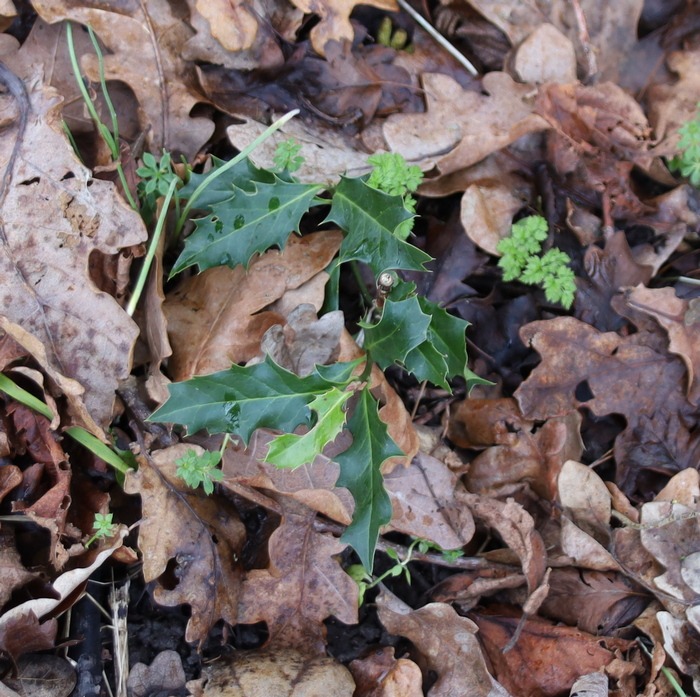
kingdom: Plantae
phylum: Tracheophyta
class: Magnoliopsida
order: Aquifoliales
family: Aquifoliaceae
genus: Ilex
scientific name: Ilex aquifolium
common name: Kristtorn
